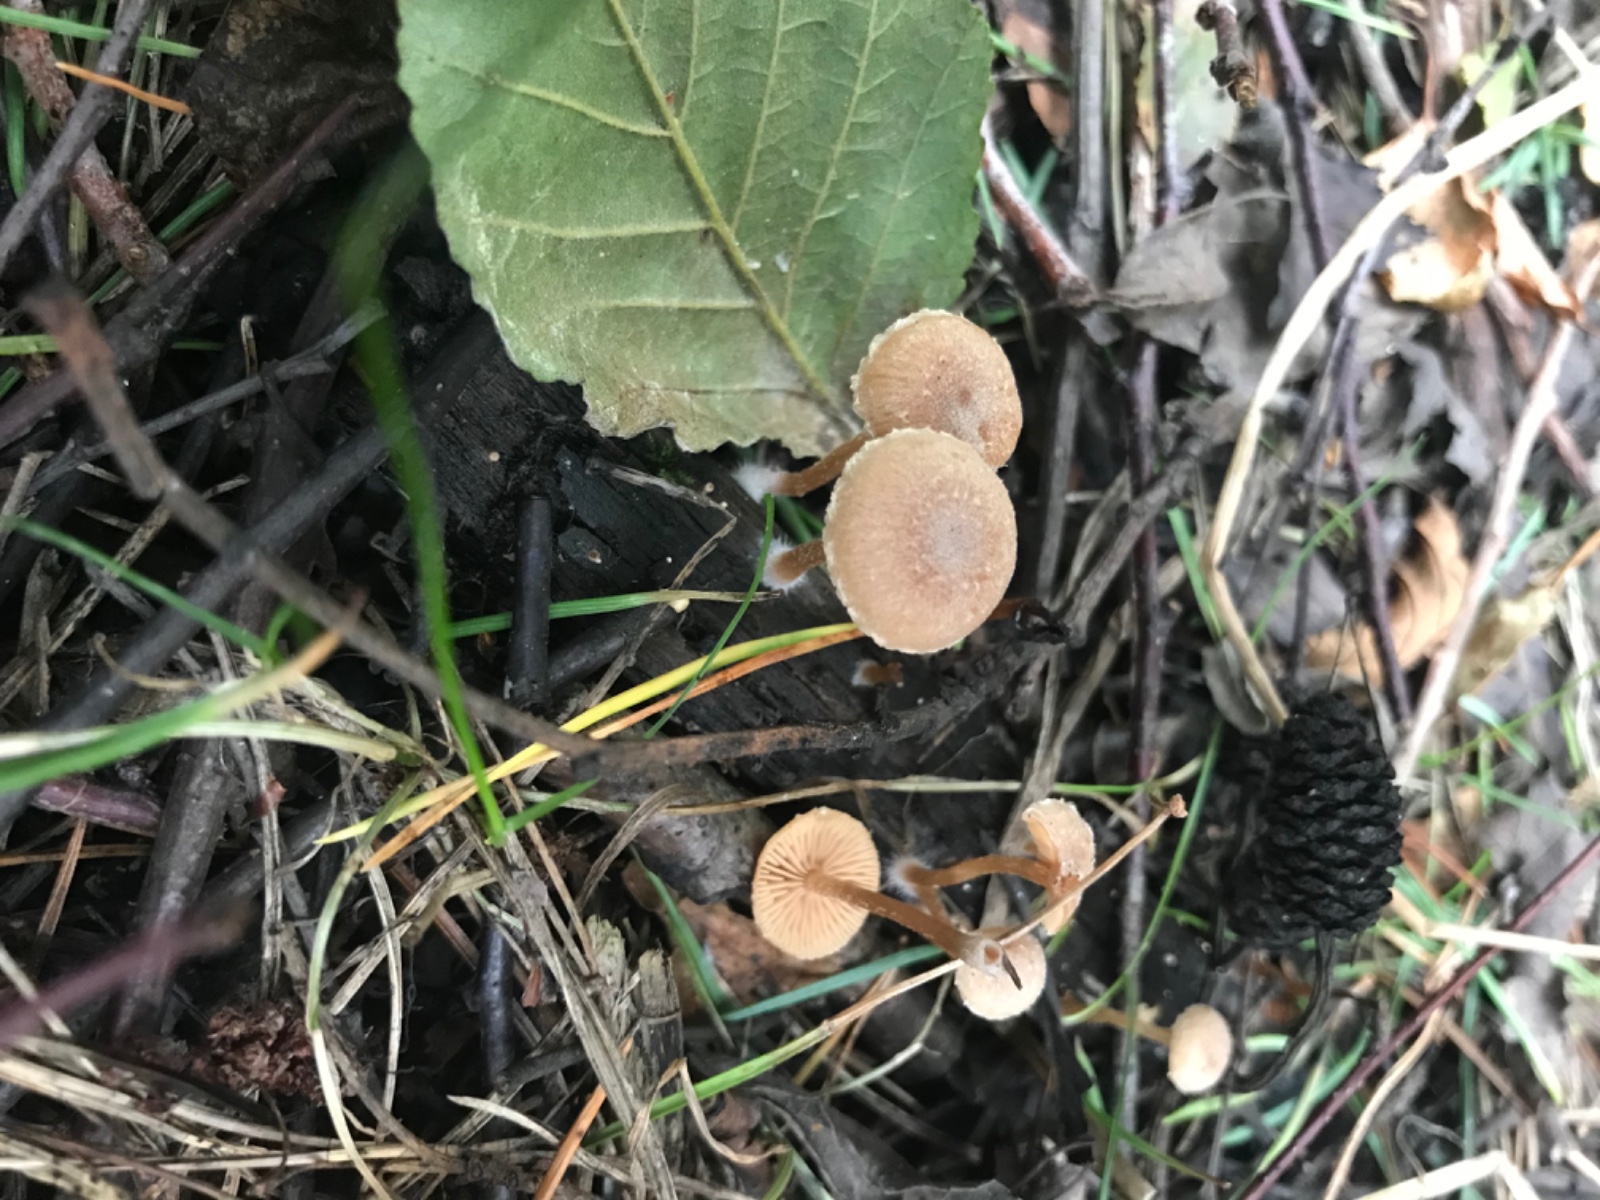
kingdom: Fungi
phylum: Basidiomycota
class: Agaricomycetes
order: Agaricales
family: Hymenogastraceae
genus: Naucoria
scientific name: Naucoria
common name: knaphat
